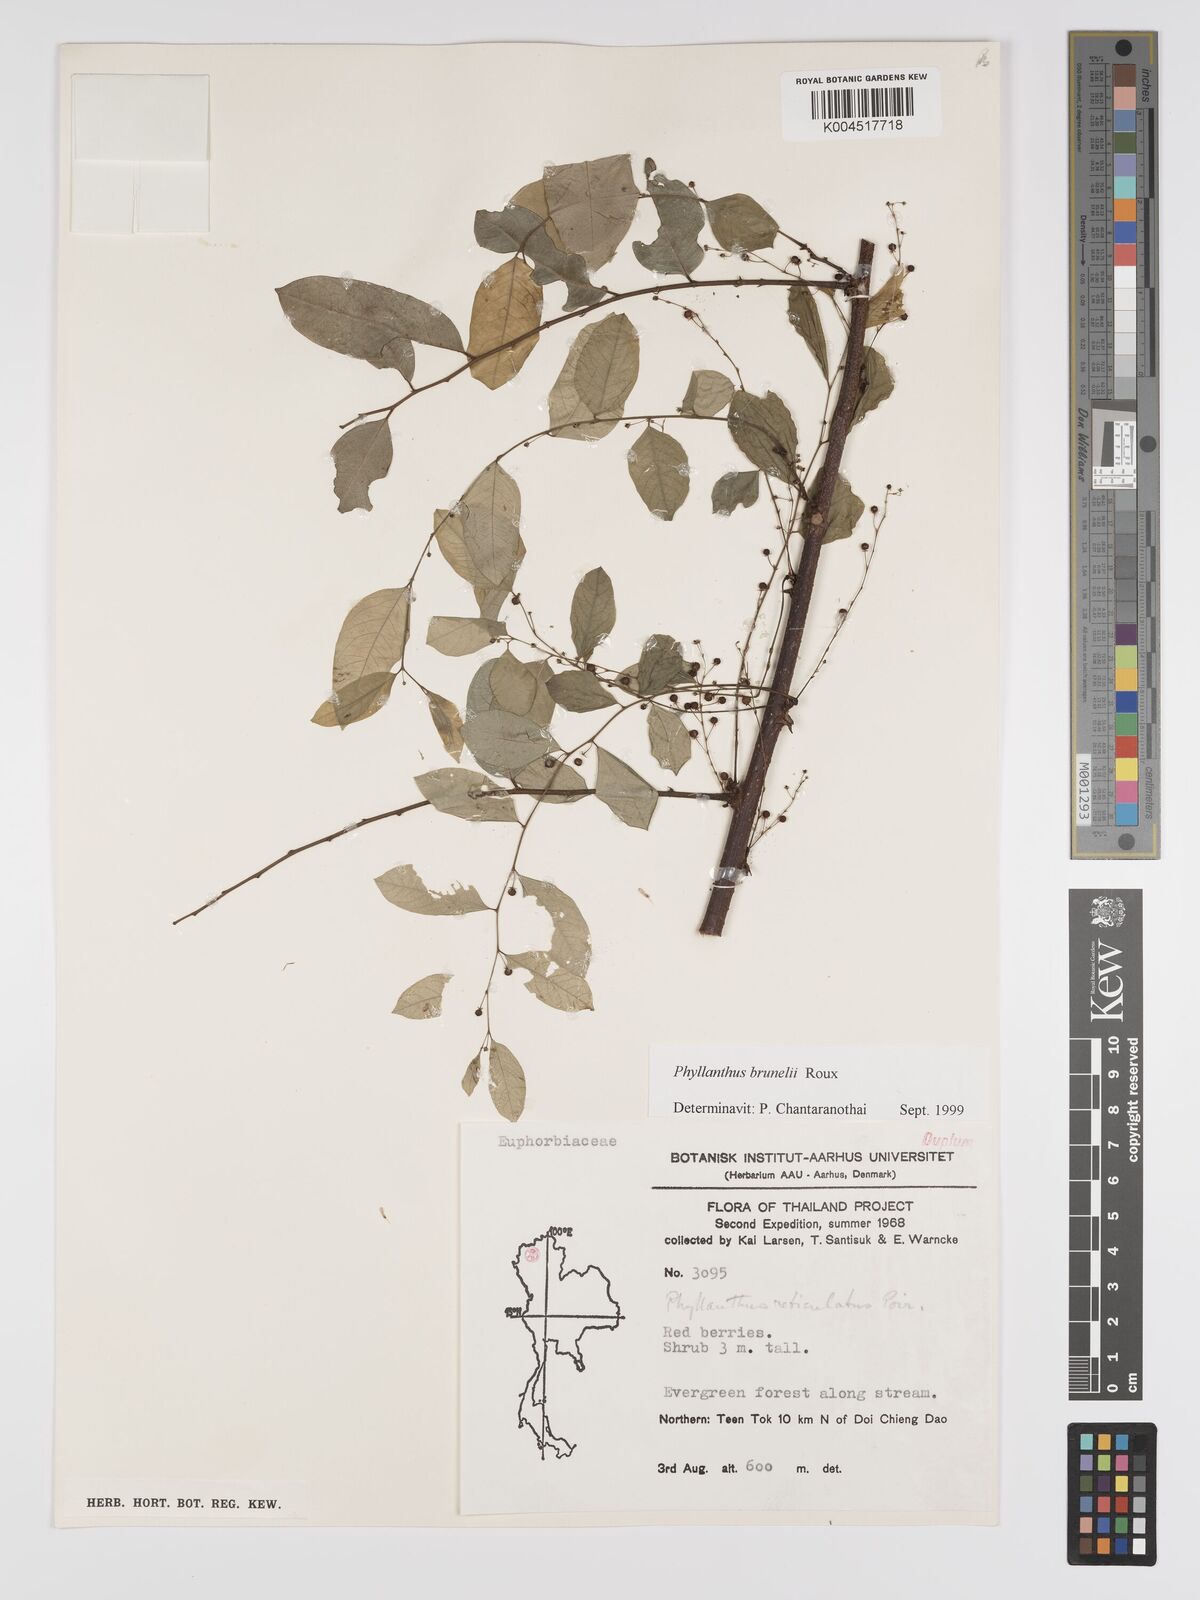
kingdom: Plantae
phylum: Tracheophyta
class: Magnoliopsida
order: Malpighiales
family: Phyllanthaceae
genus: Phyllanthus
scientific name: Phyllanthus microcarpus
